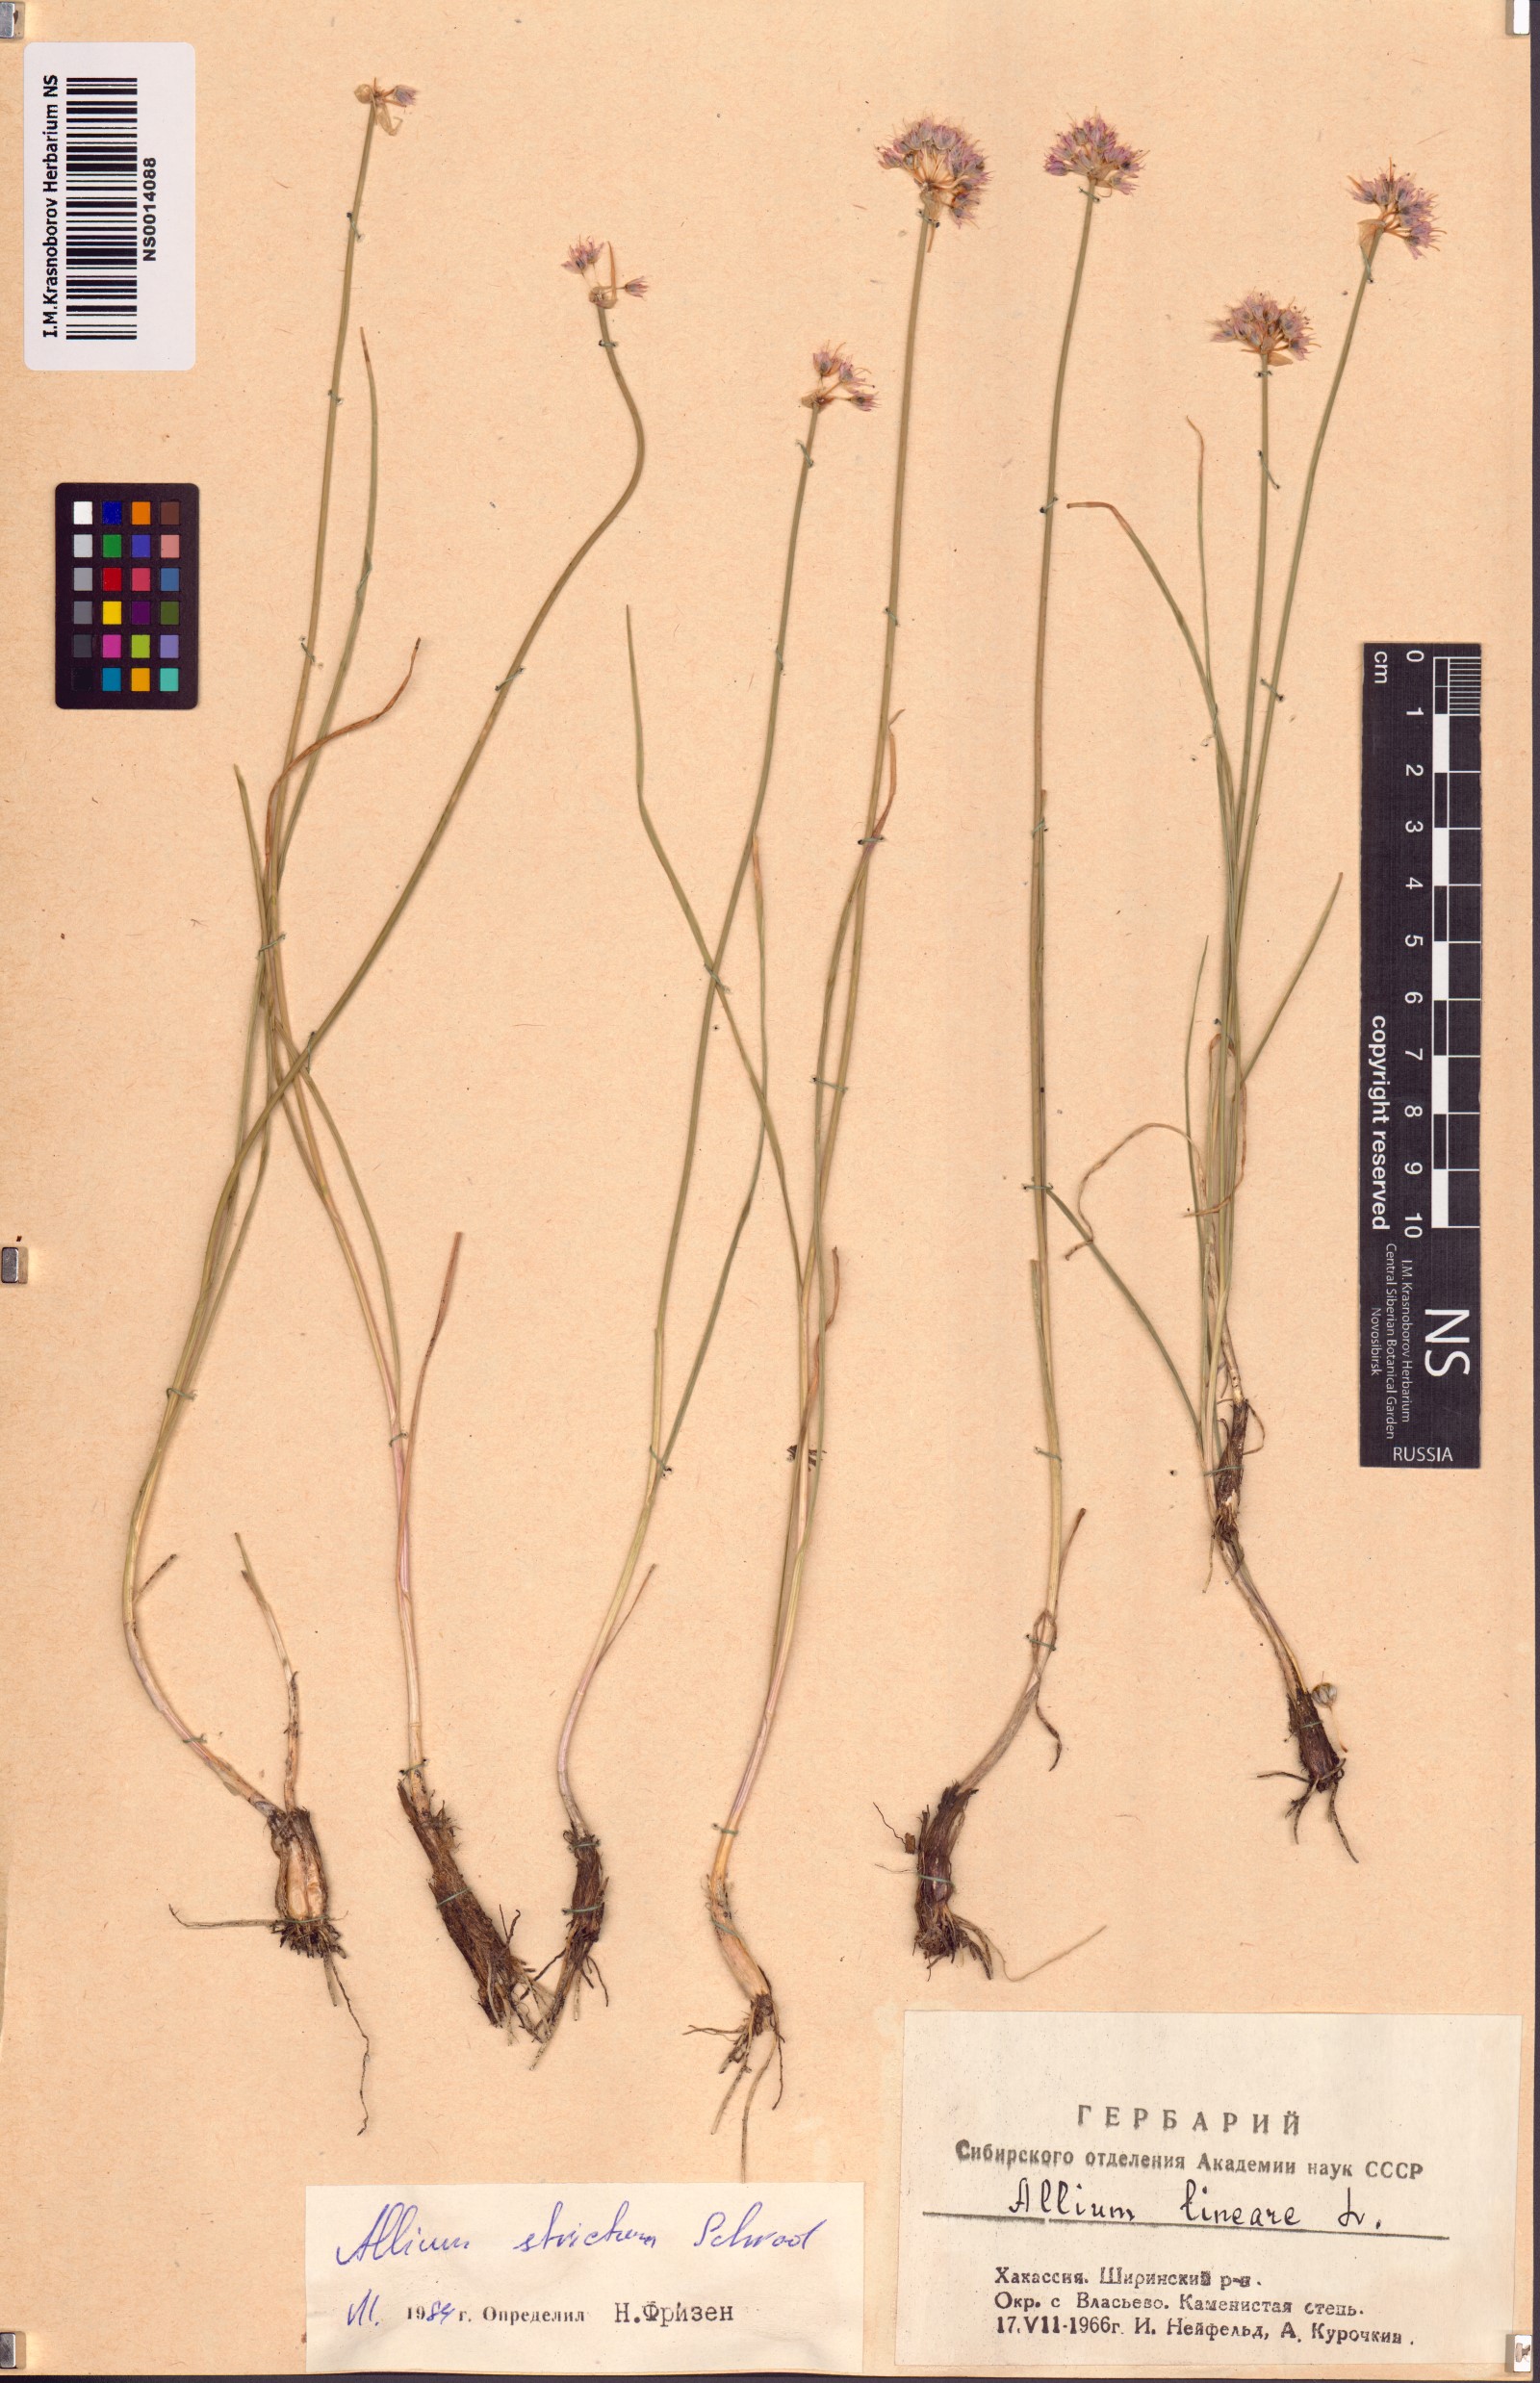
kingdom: Plantae
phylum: Tracheophyta
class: Liliopsida
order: Asparagales
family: Amaryllidaceae
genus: Allium
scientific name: Allium strictum
